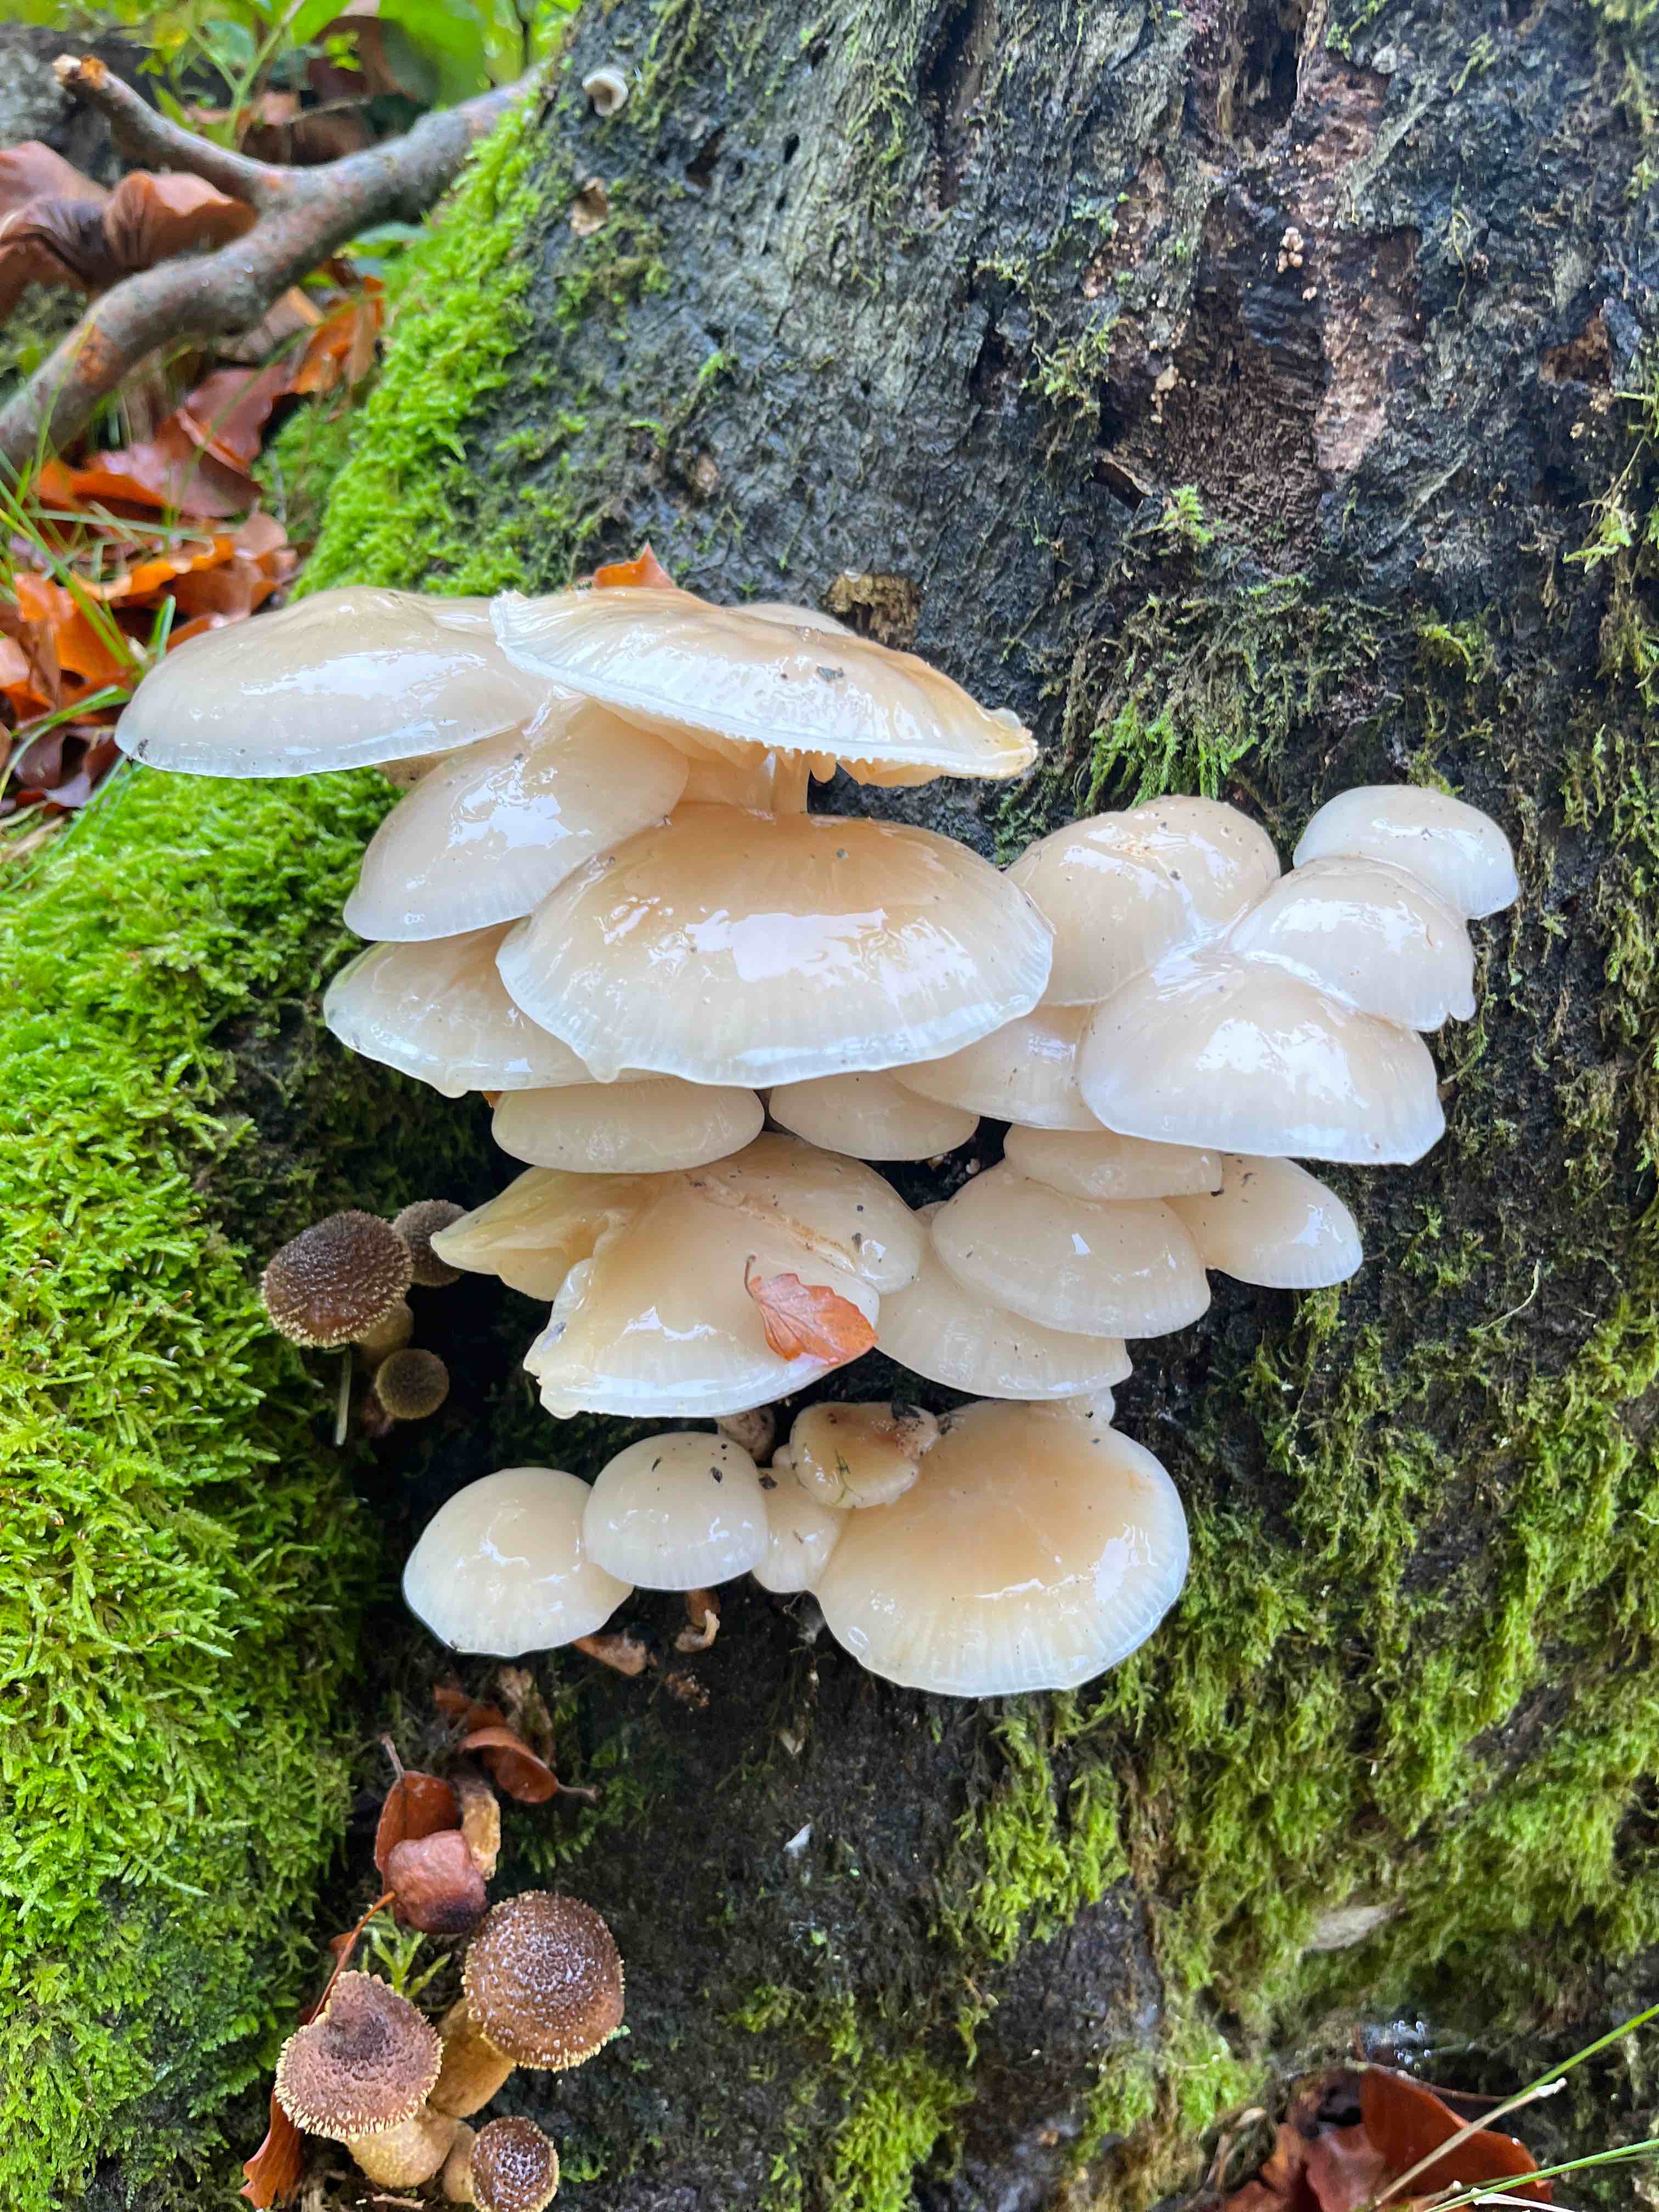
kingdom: Fungi
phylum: Basidiomycota
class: Agaricomycetes
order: Agaricales
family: Physalacriaceae
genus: Mucidula
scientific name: Mucidula mucida
